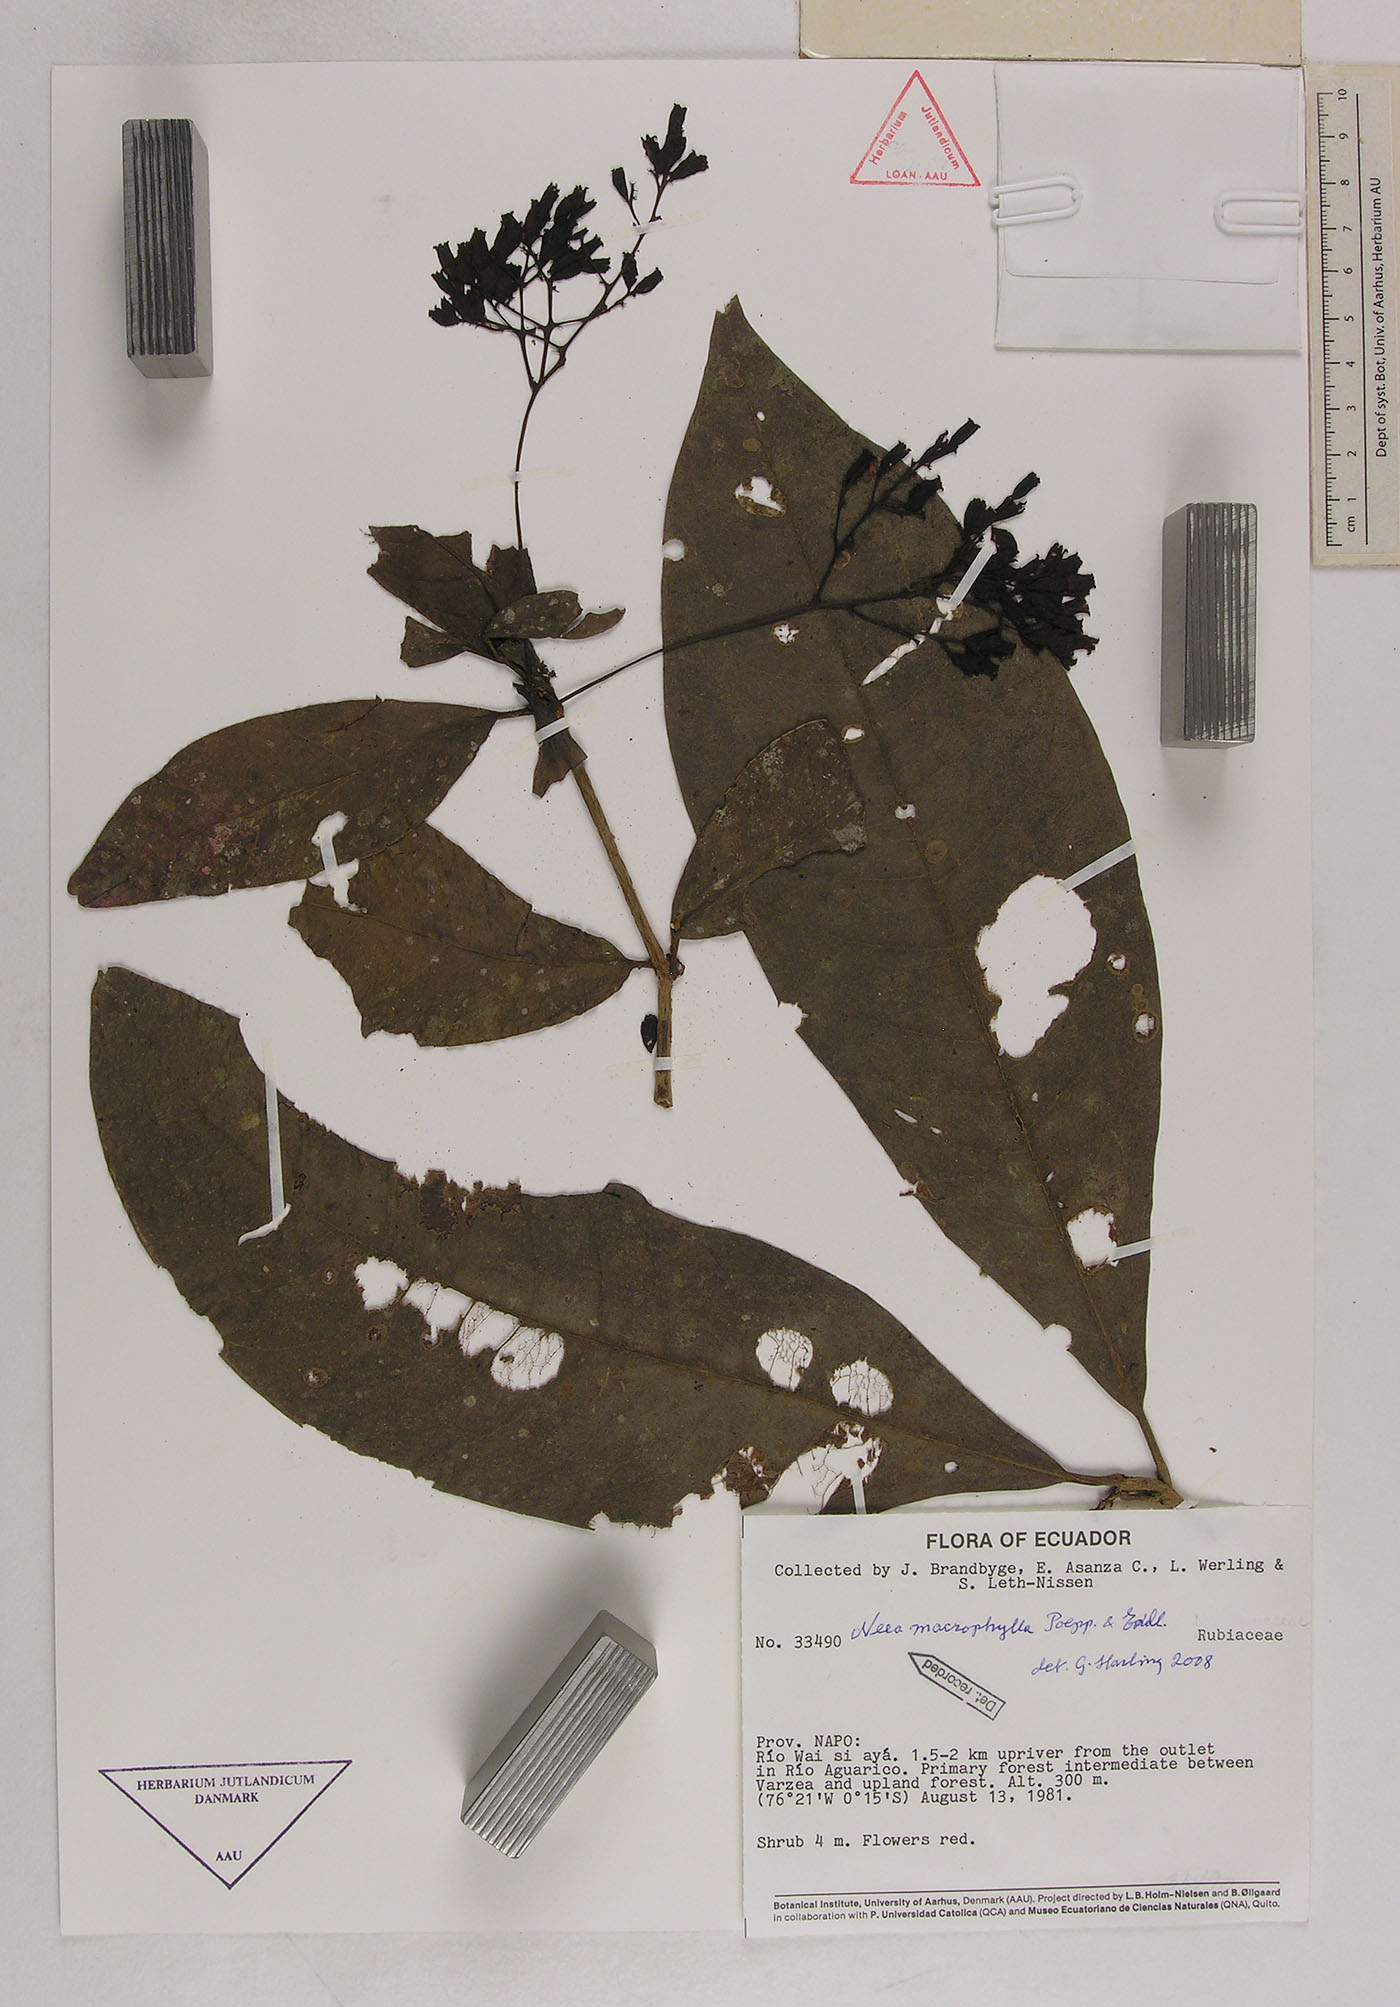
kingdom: Plantae
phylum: Tracheophyta
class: Magnoliopsida
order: Caryophyllales
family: Nyctaginaceae
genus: Neea
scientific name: Neea macrophylla
